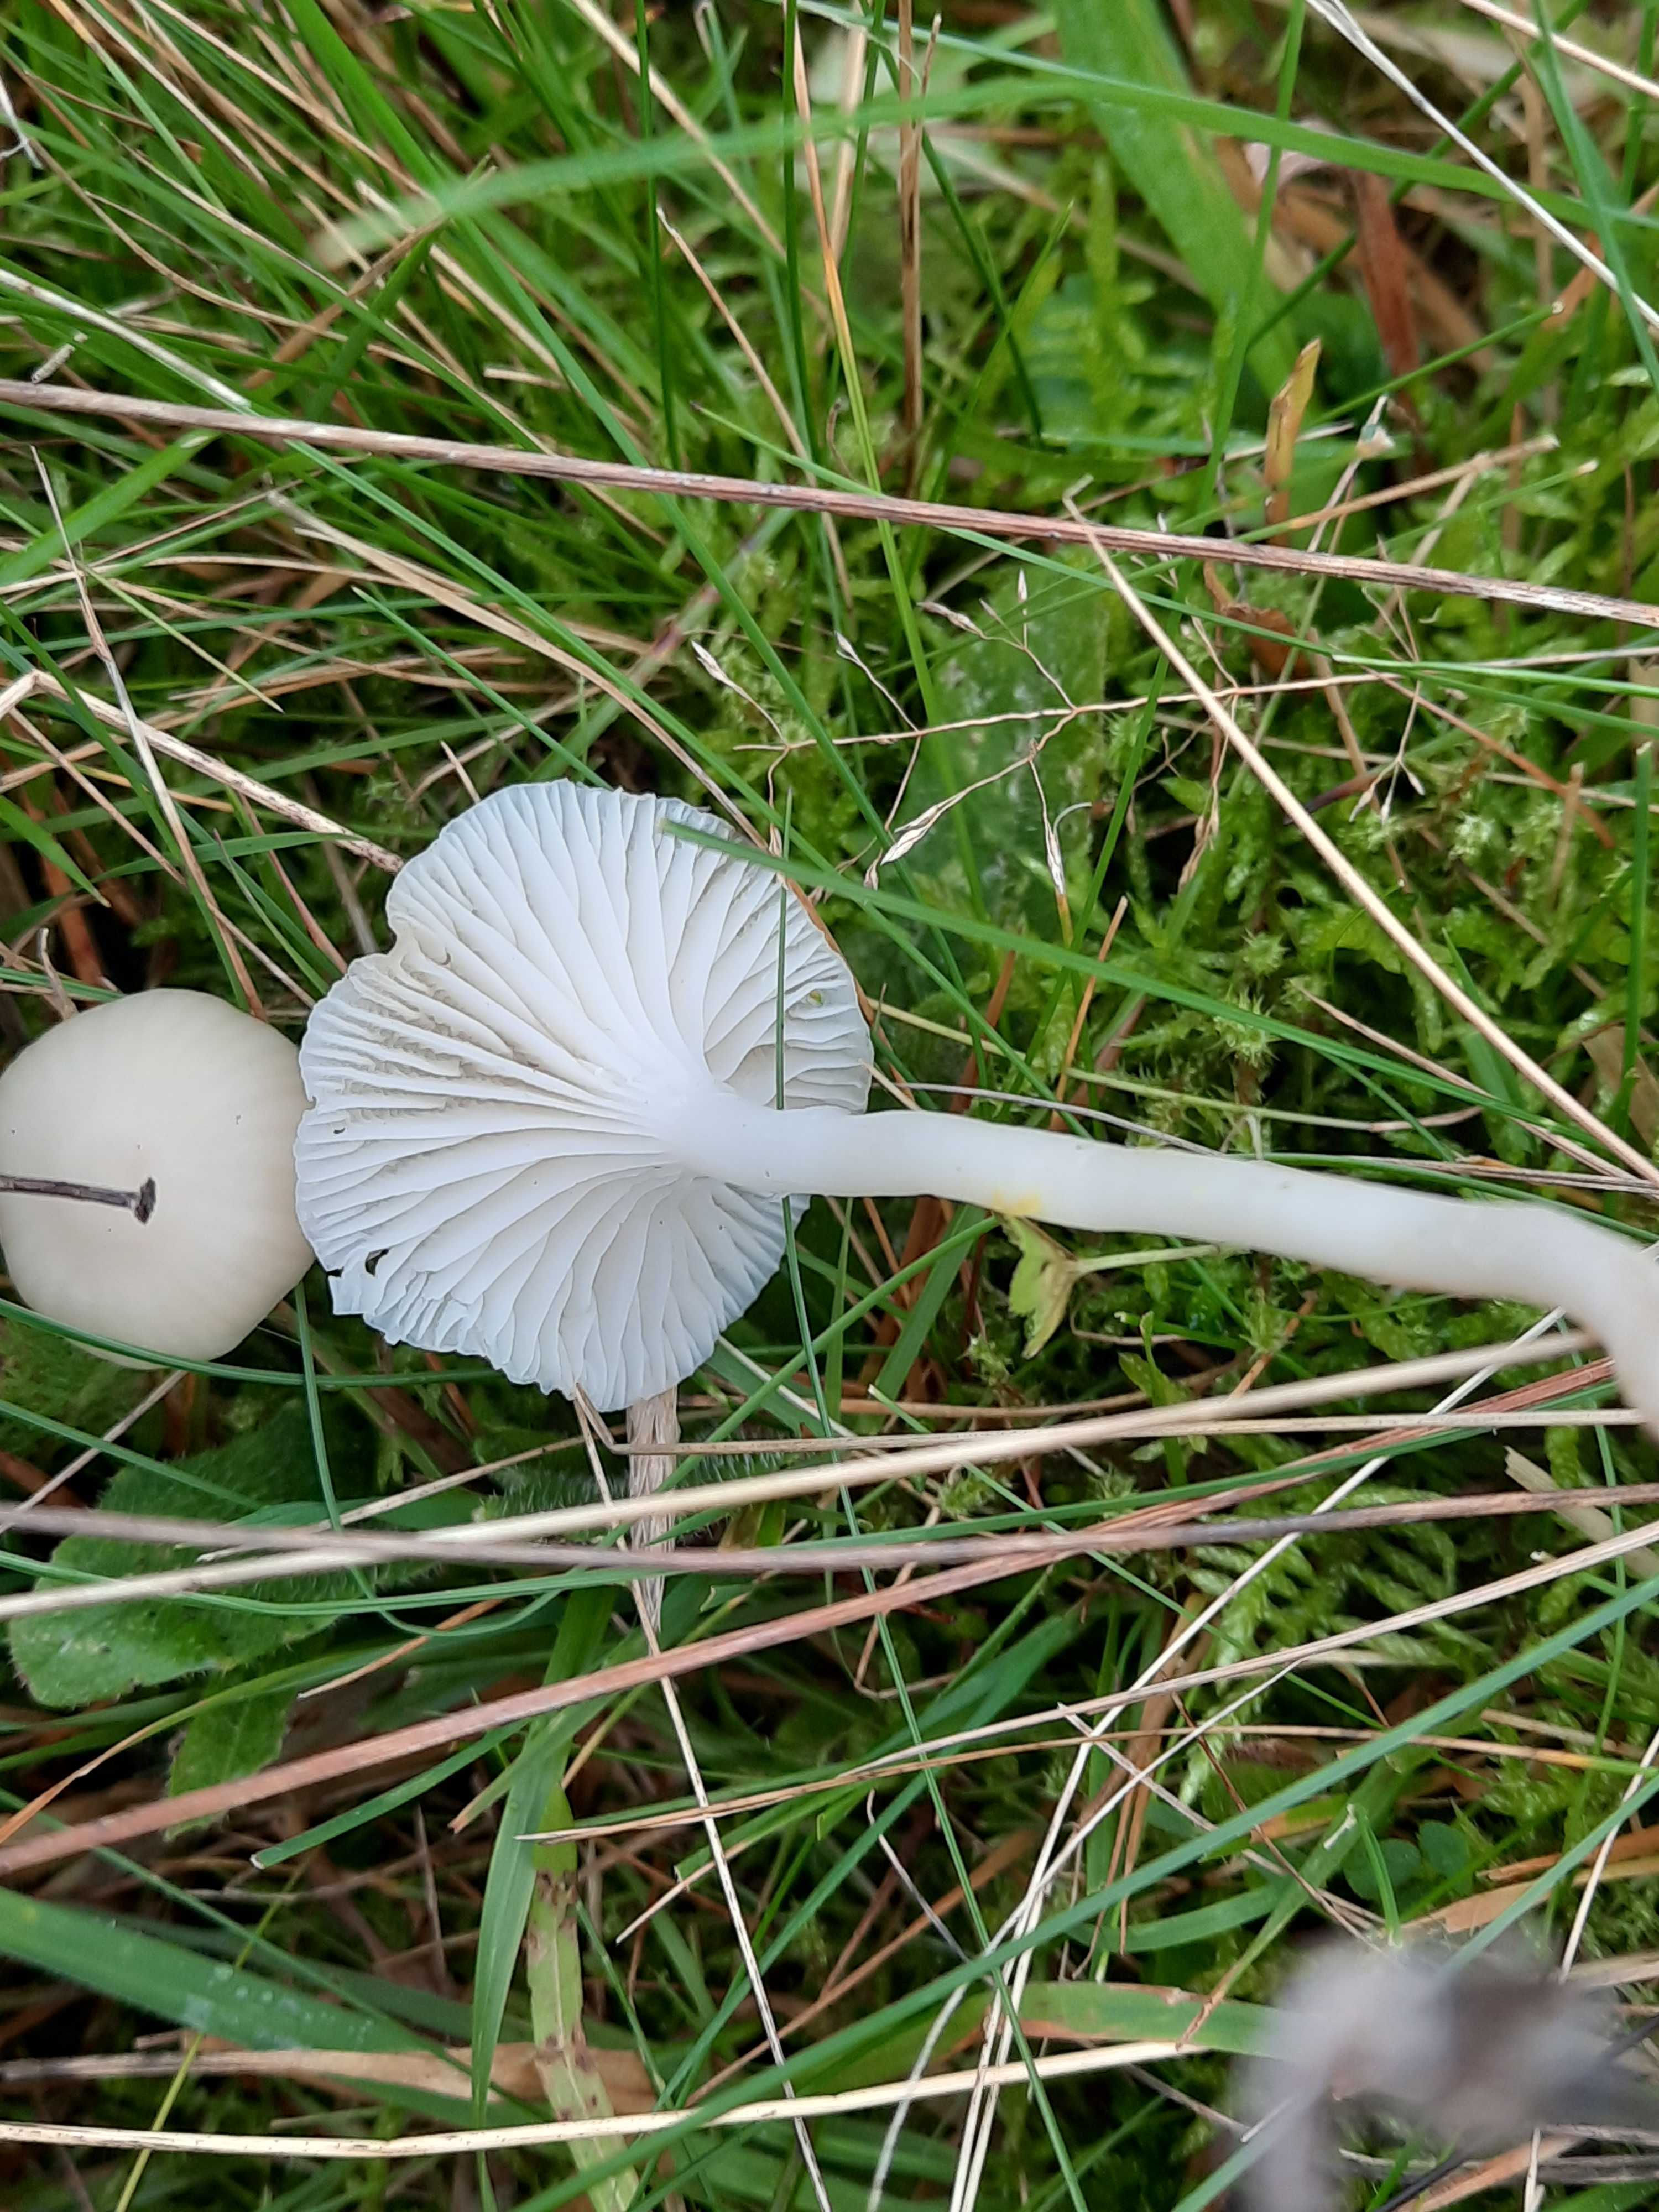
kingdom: Fungi
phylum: Basidiomycota
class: Agaricomycetes
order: Agaricales
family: Hygrophoraceae
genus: Cuphophyllus
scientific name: Cuphophyllus virgineus
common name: snehvid vokshat
